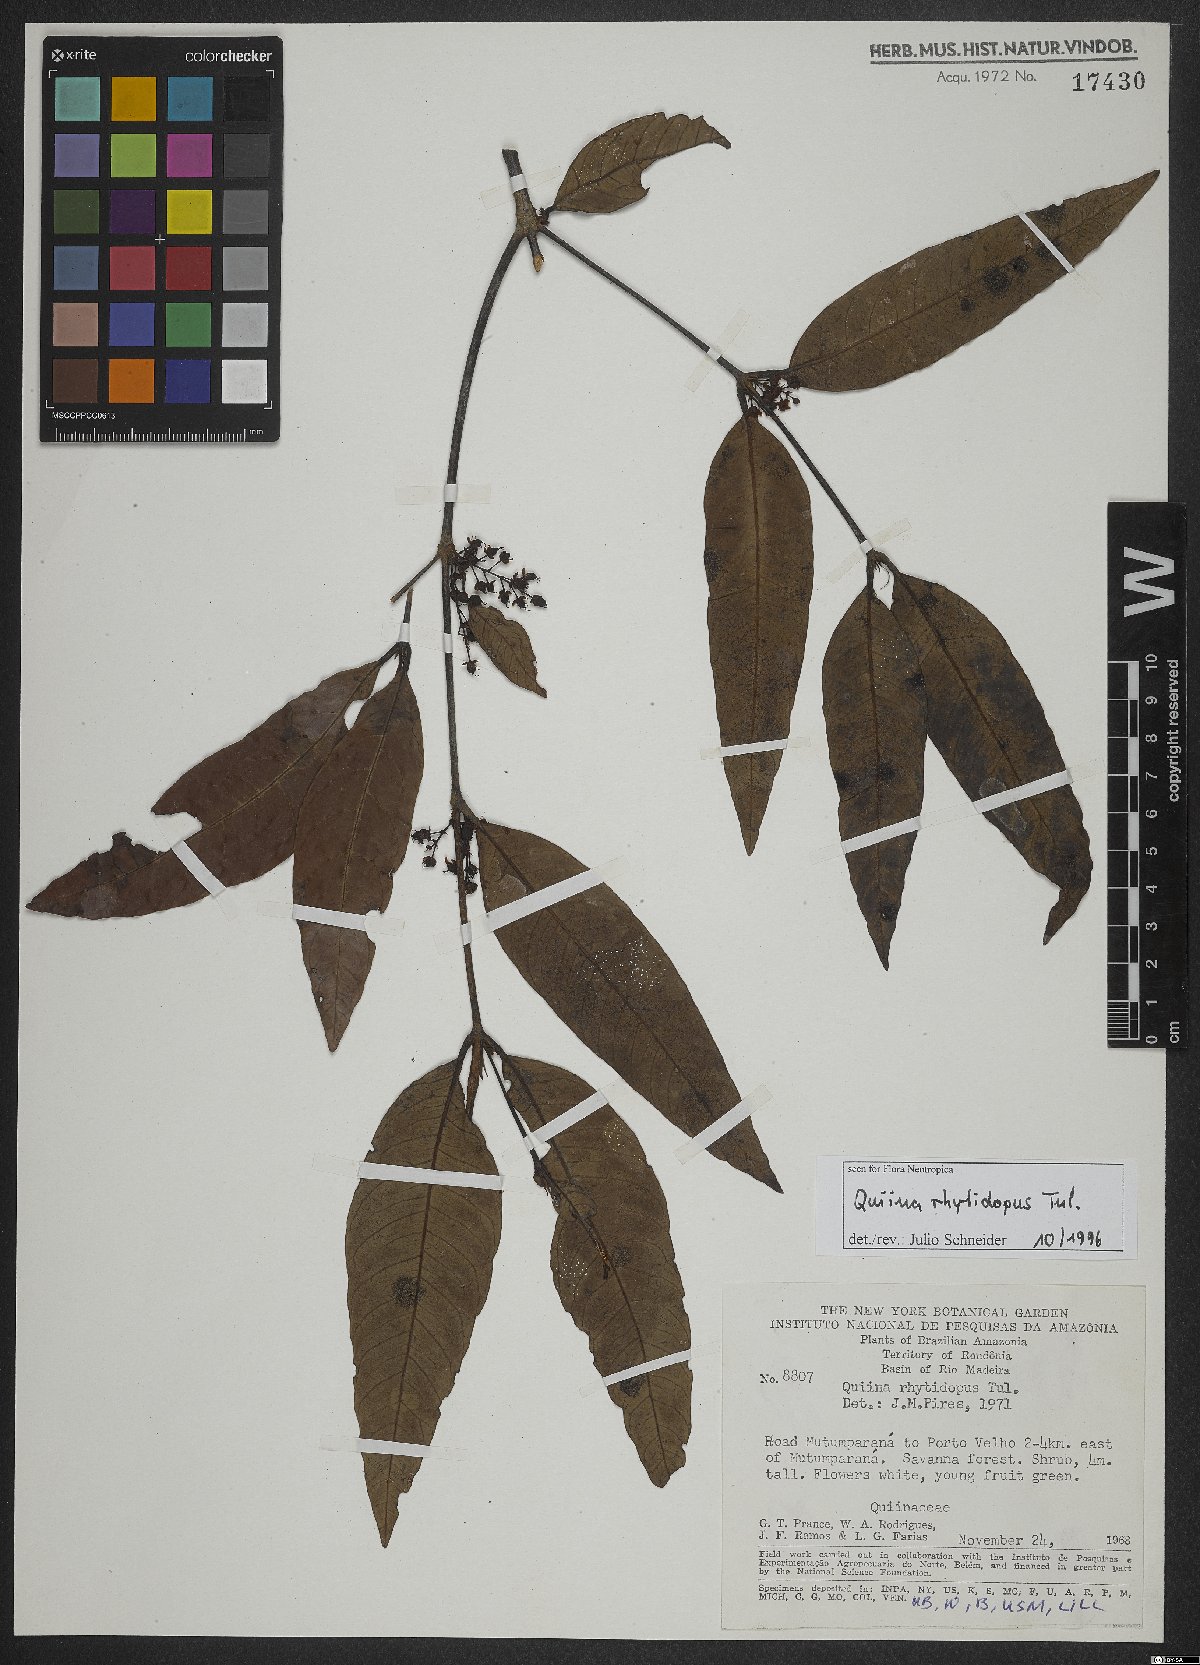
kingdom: Plantae
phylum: Tracheophyta
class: Magnoliopsida
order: Malpighiales
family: Quiinaceae
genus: Quiina
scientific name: Quiina rhytidopus
